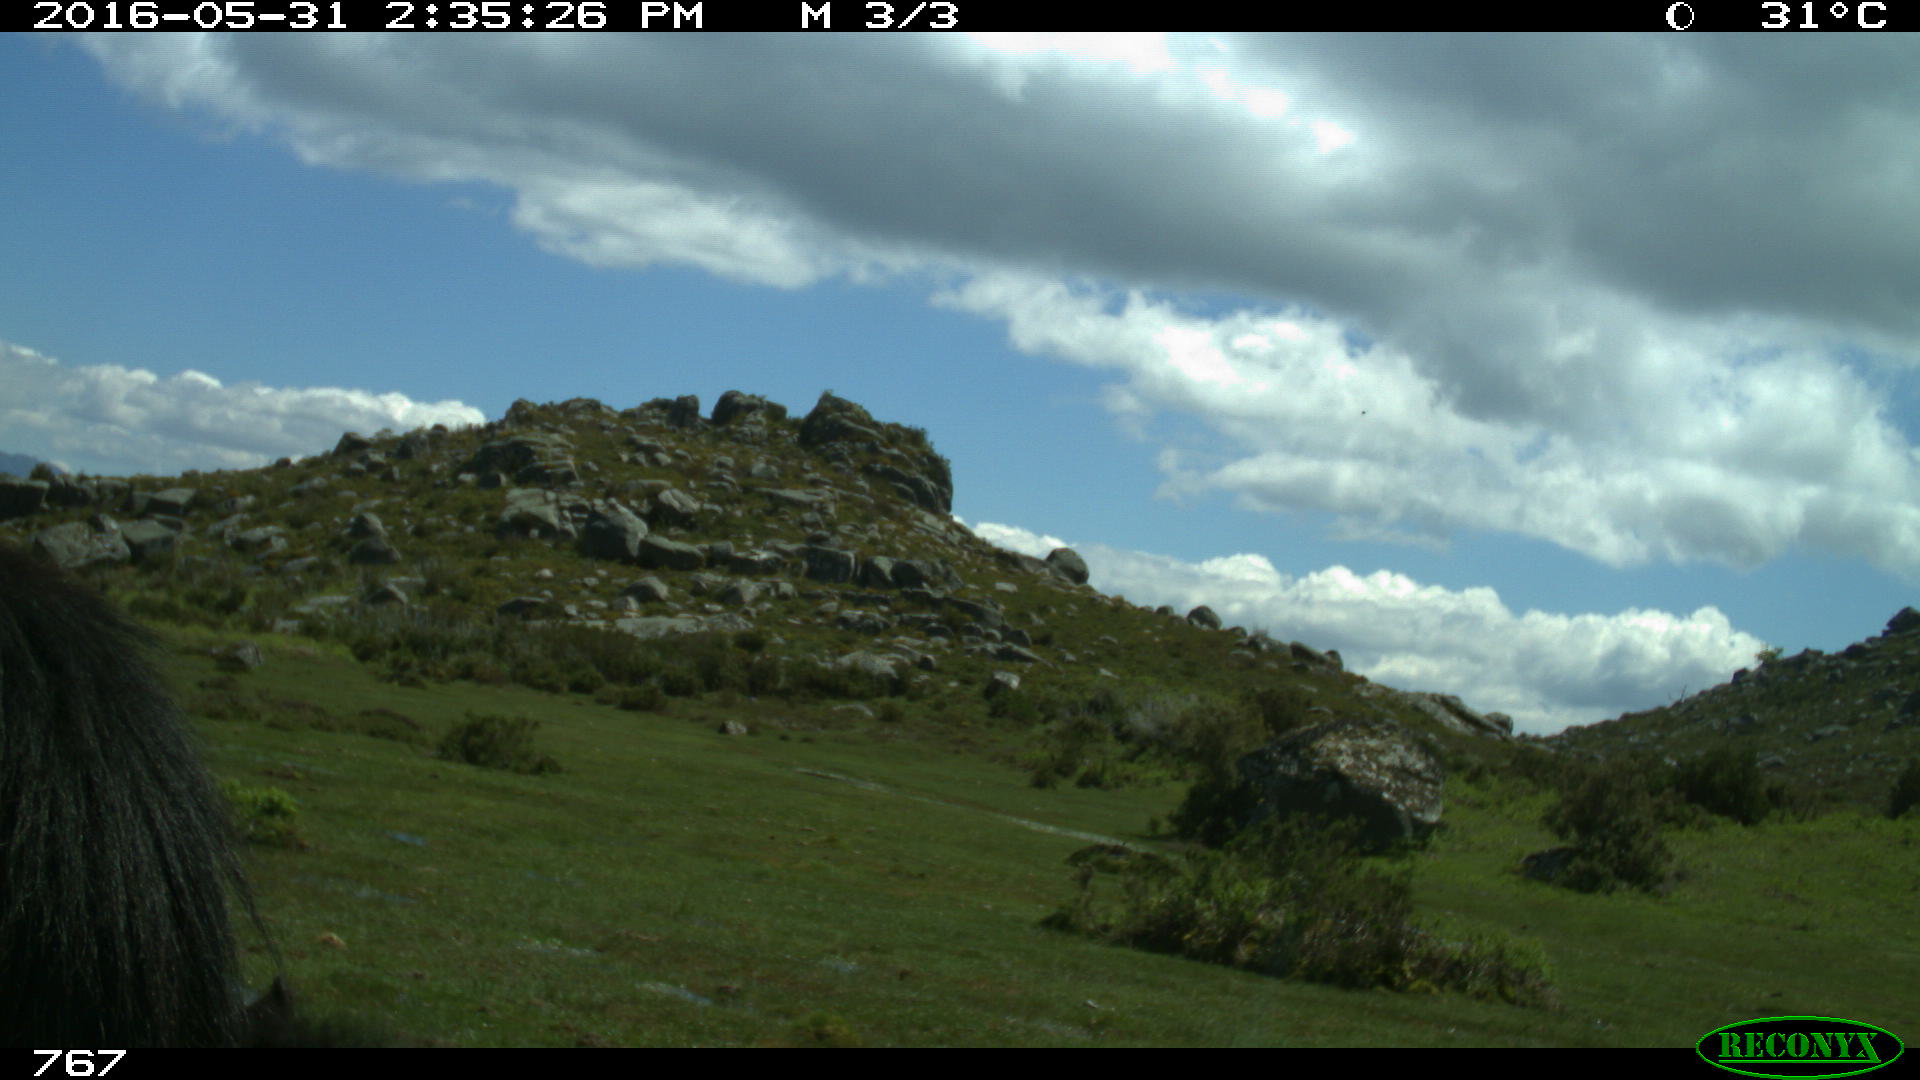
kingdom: Animalia
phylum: Chordata
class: Mammalia
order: Perissodactyla
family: Equidae
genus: Equus
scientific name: Equus caballus
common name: Horse
